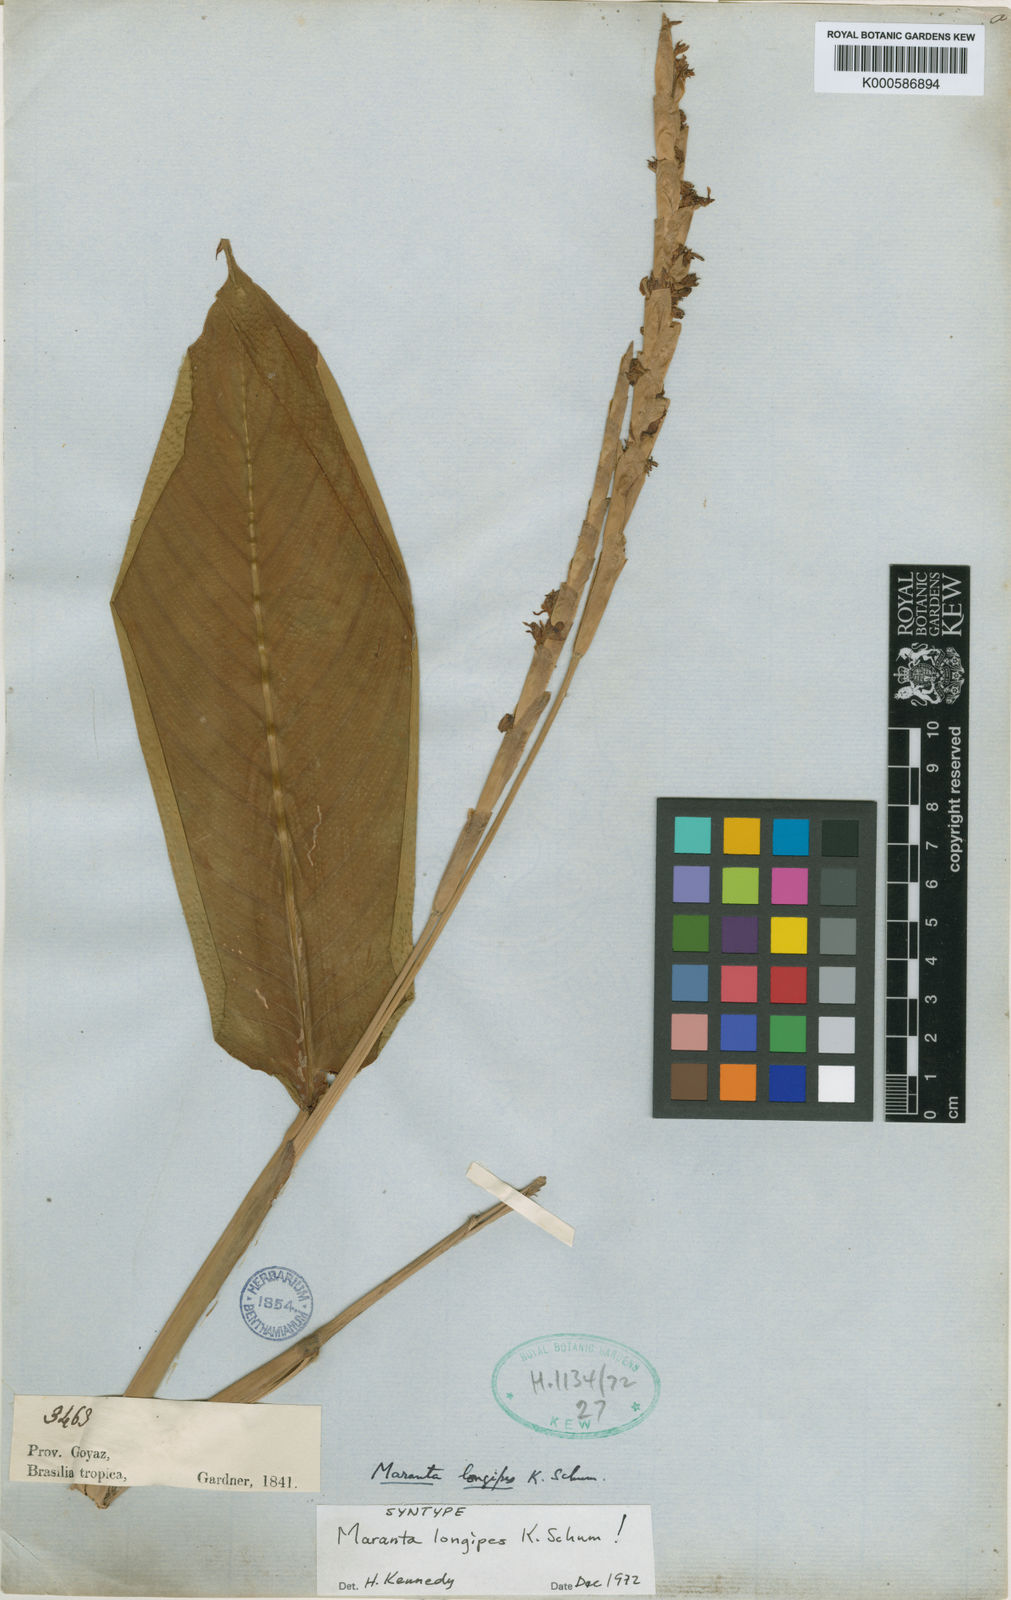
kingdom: Plantae
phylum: Tracheophyta
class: Liliopsida
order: Zingiberales
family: Marantaceae
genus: Maranta
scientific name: Maranta phrynioides
